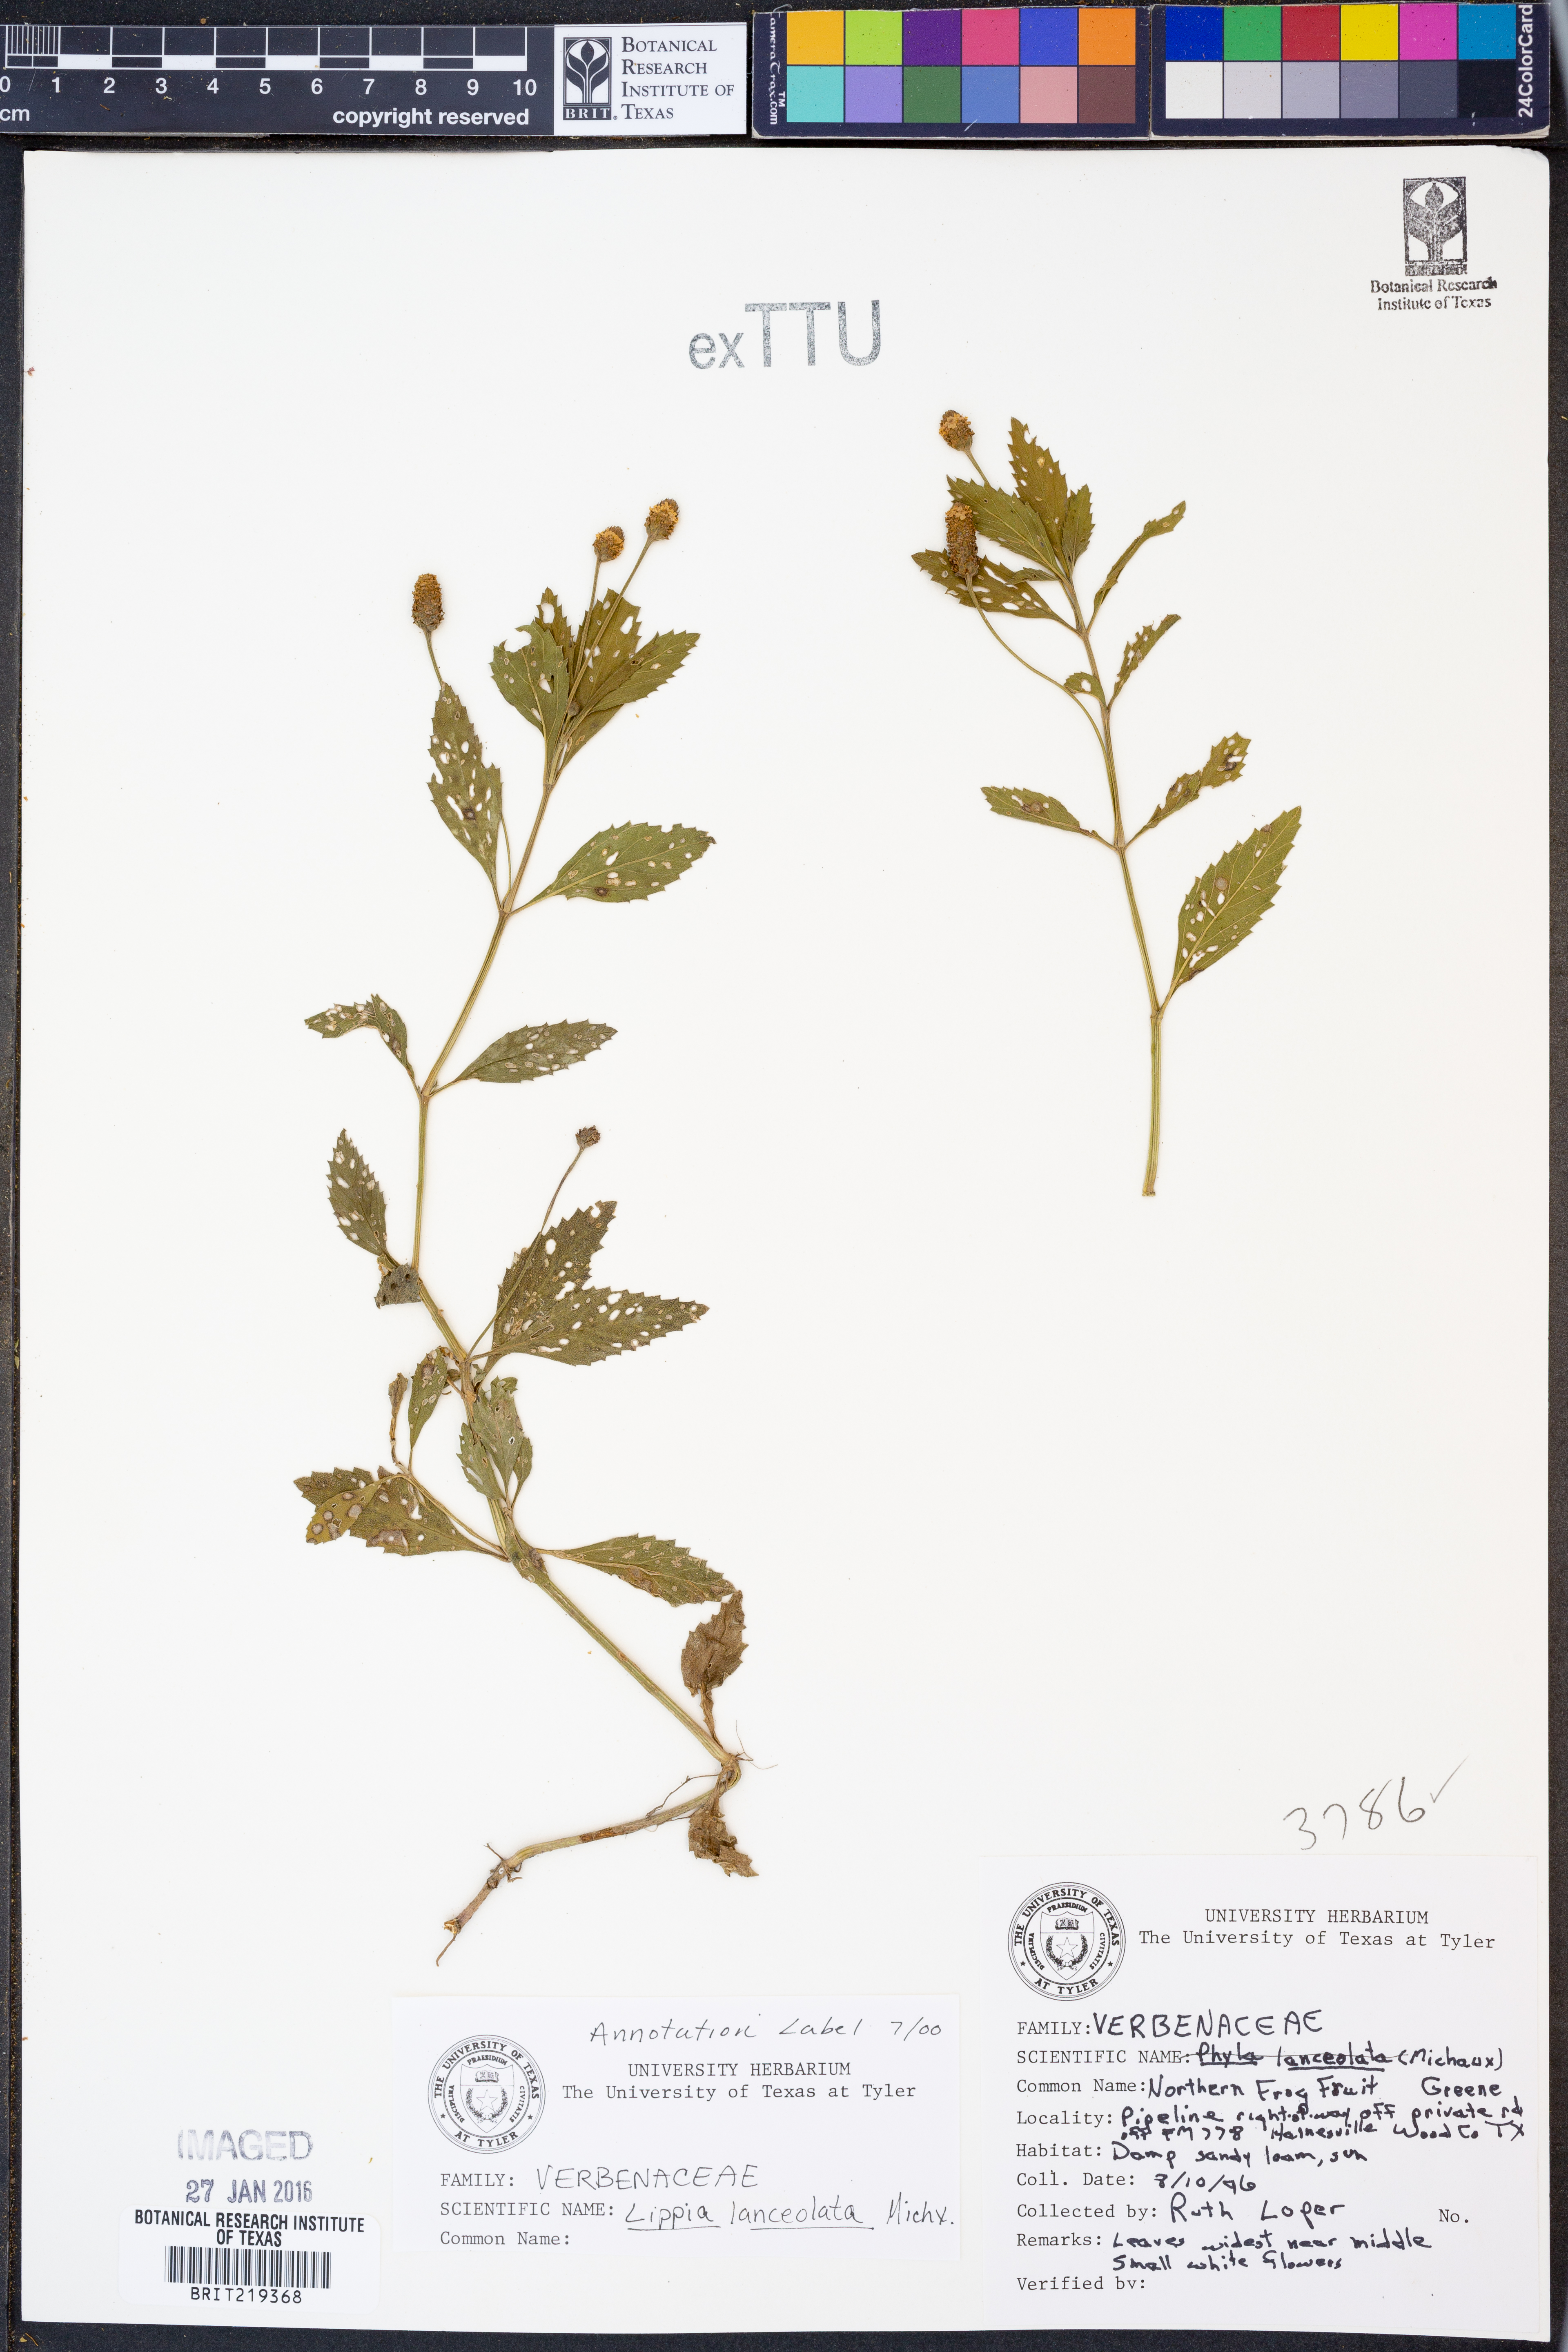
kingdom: Plantae
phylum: Tracheophyta
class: Magnoliopsida
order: Lamiales
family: Verbenaceae
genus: Phyla
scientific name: Phyla lanceolata
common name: Northern fogfruit
